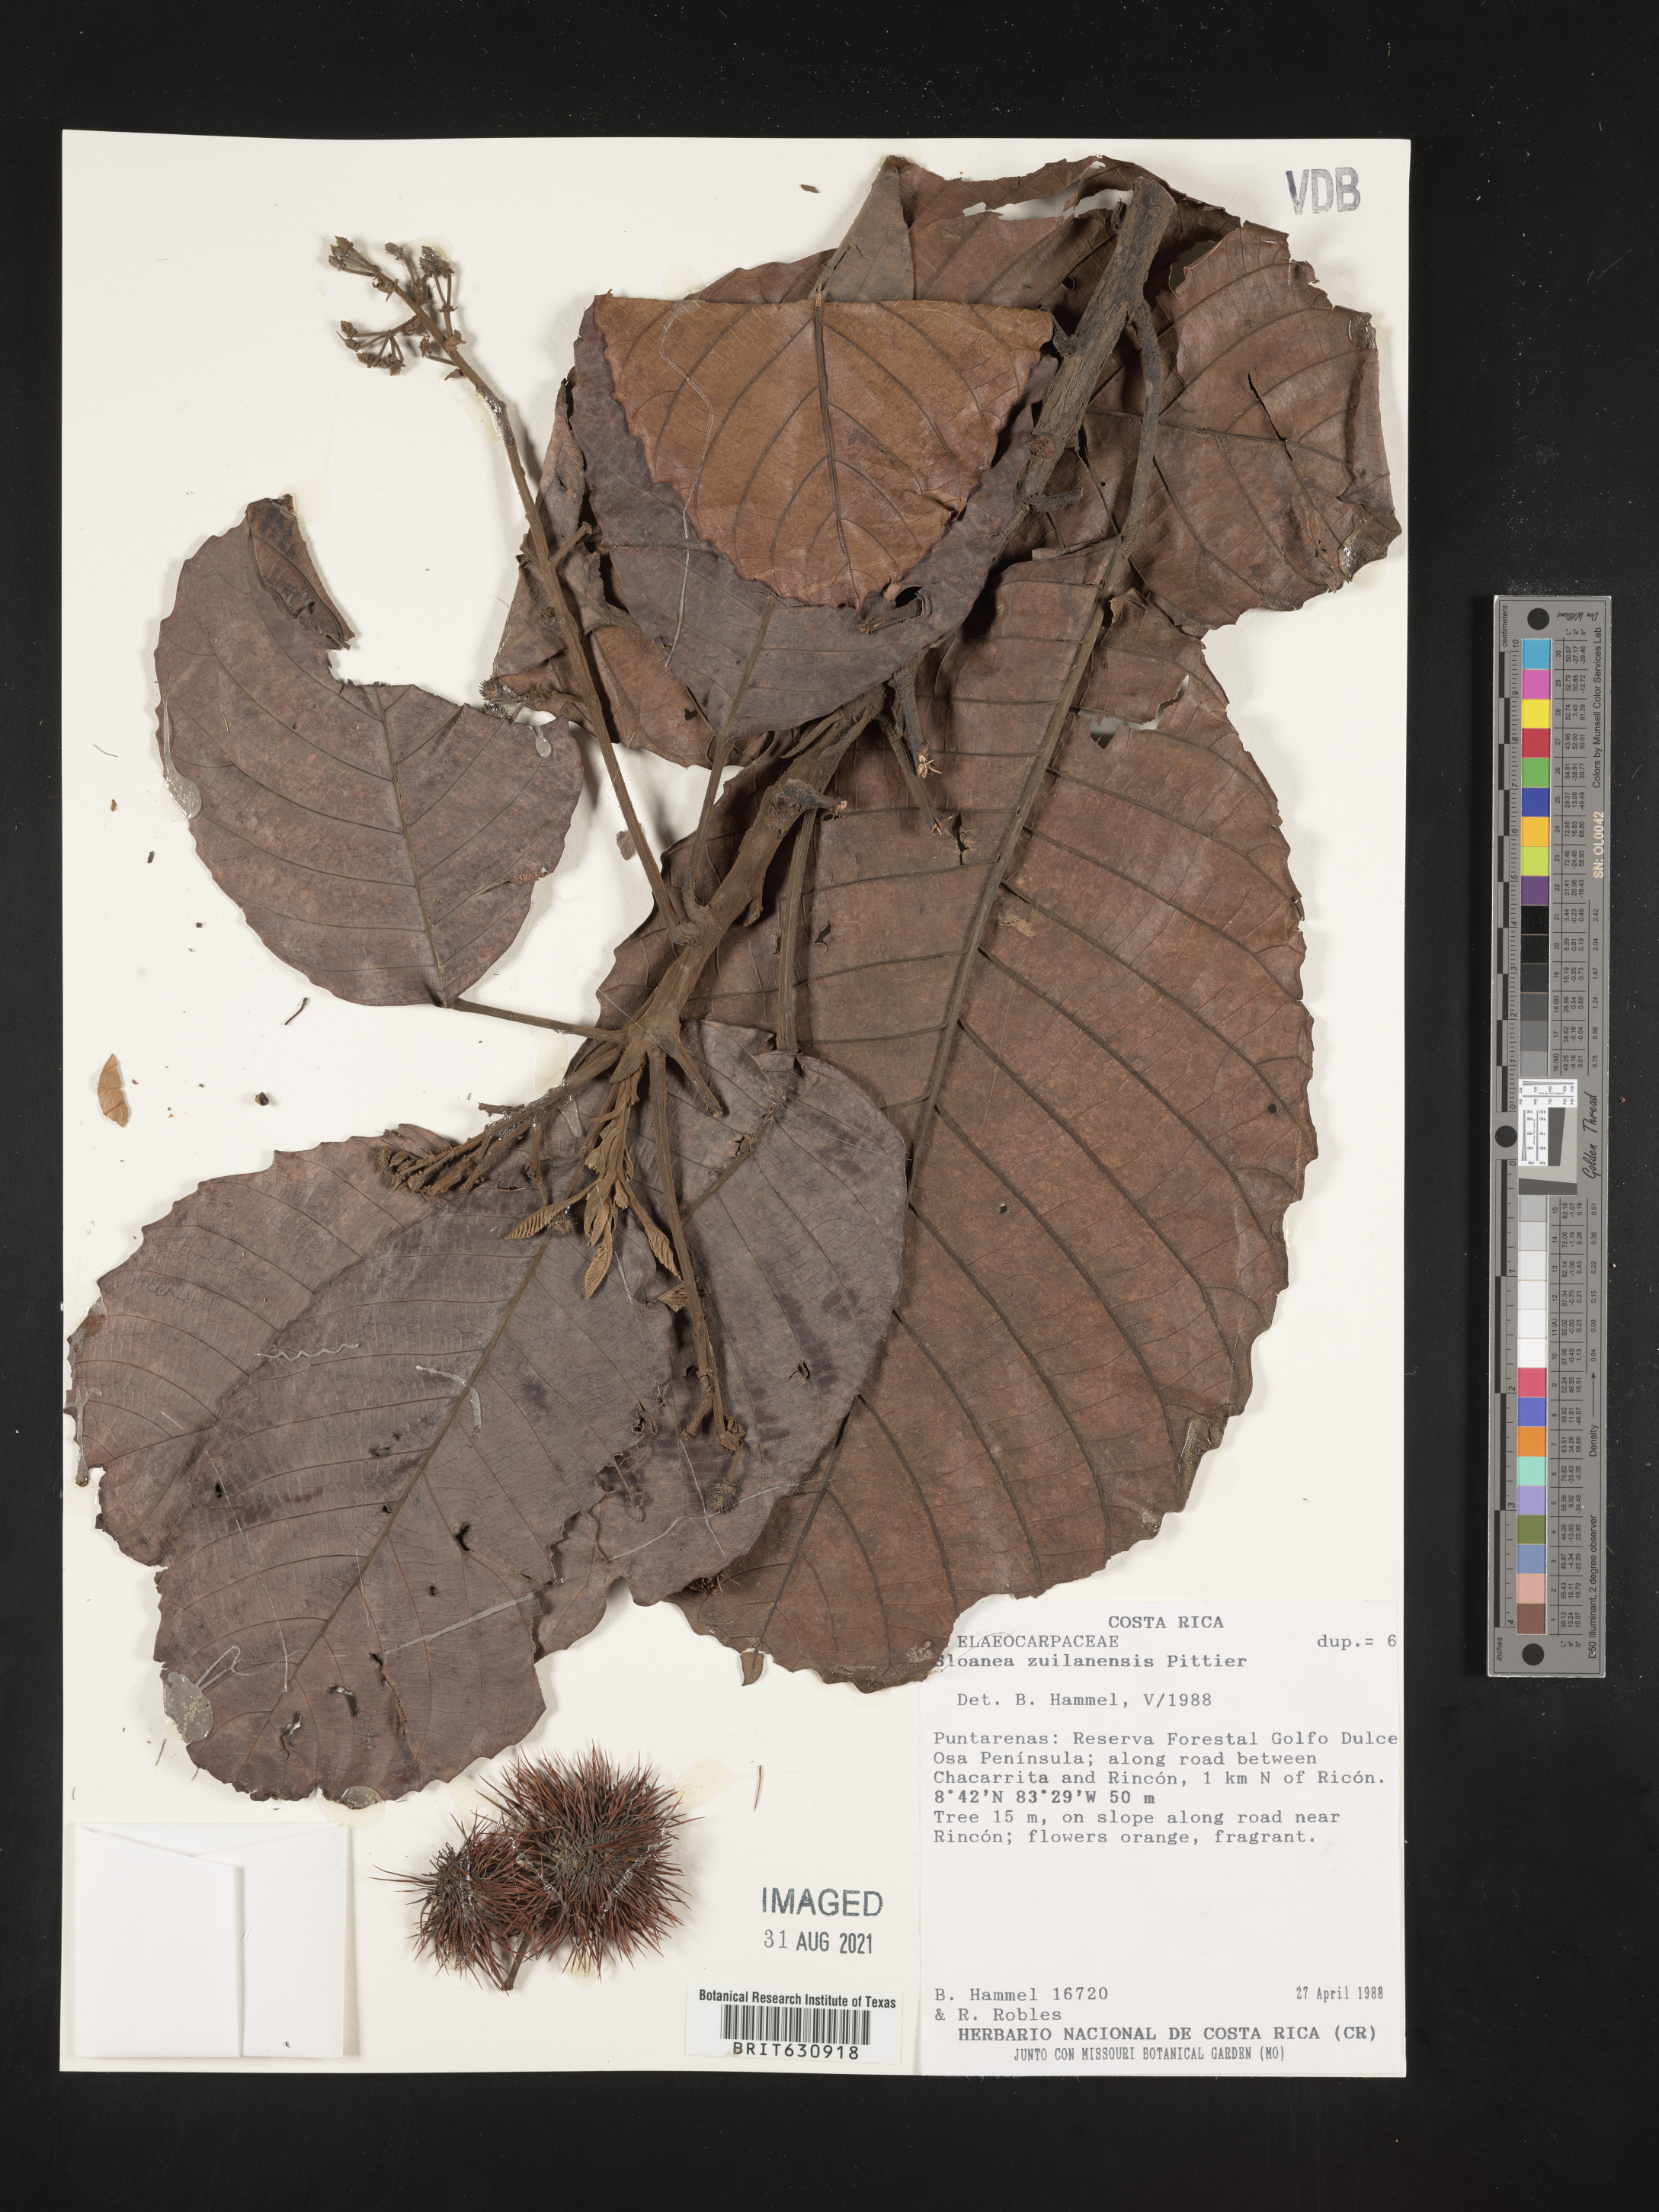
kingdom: Plantae
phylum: Tracheophyta
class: Magnoliopsida
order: Oxalidales
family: Elaeocarpaceae
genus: Sloanea
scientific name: Sloanea
